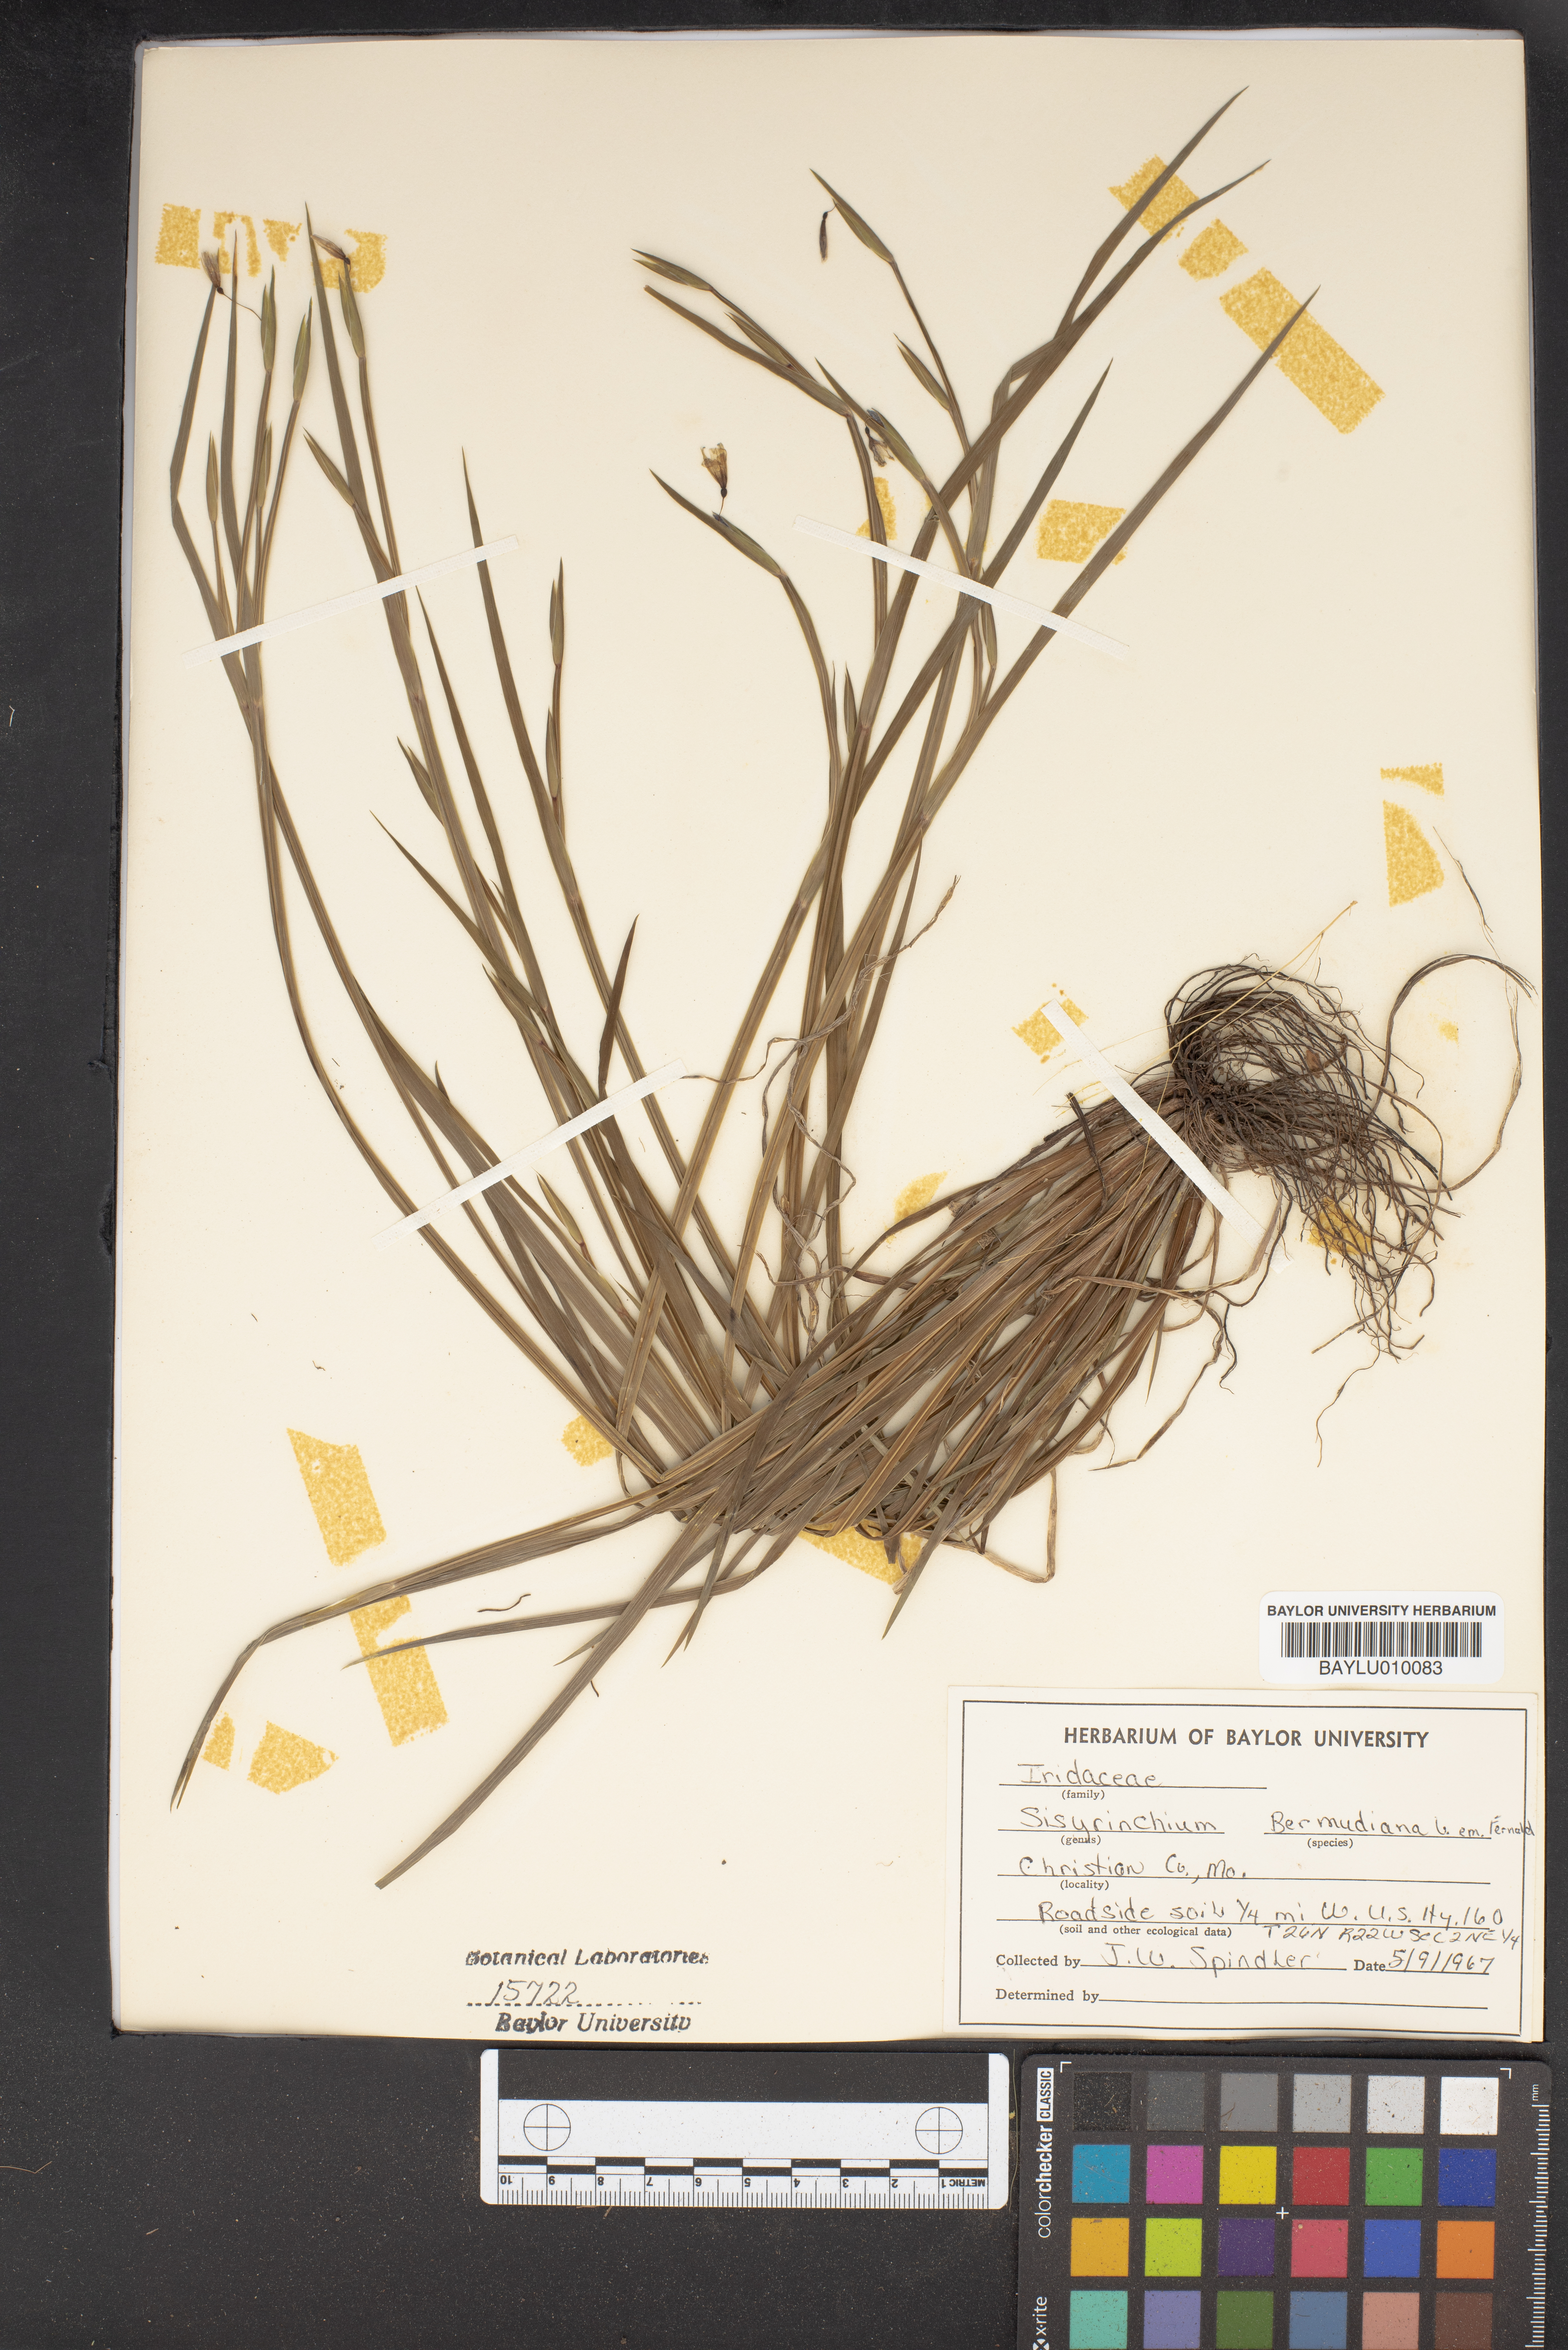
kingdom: Plantae
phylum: Tracheophyta
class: Liliopsida
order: Asparagales
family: Iridaceae
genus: Sisyrinchium
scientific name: Sisyrinchium bermudiana
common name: Blue-eyed-grass
